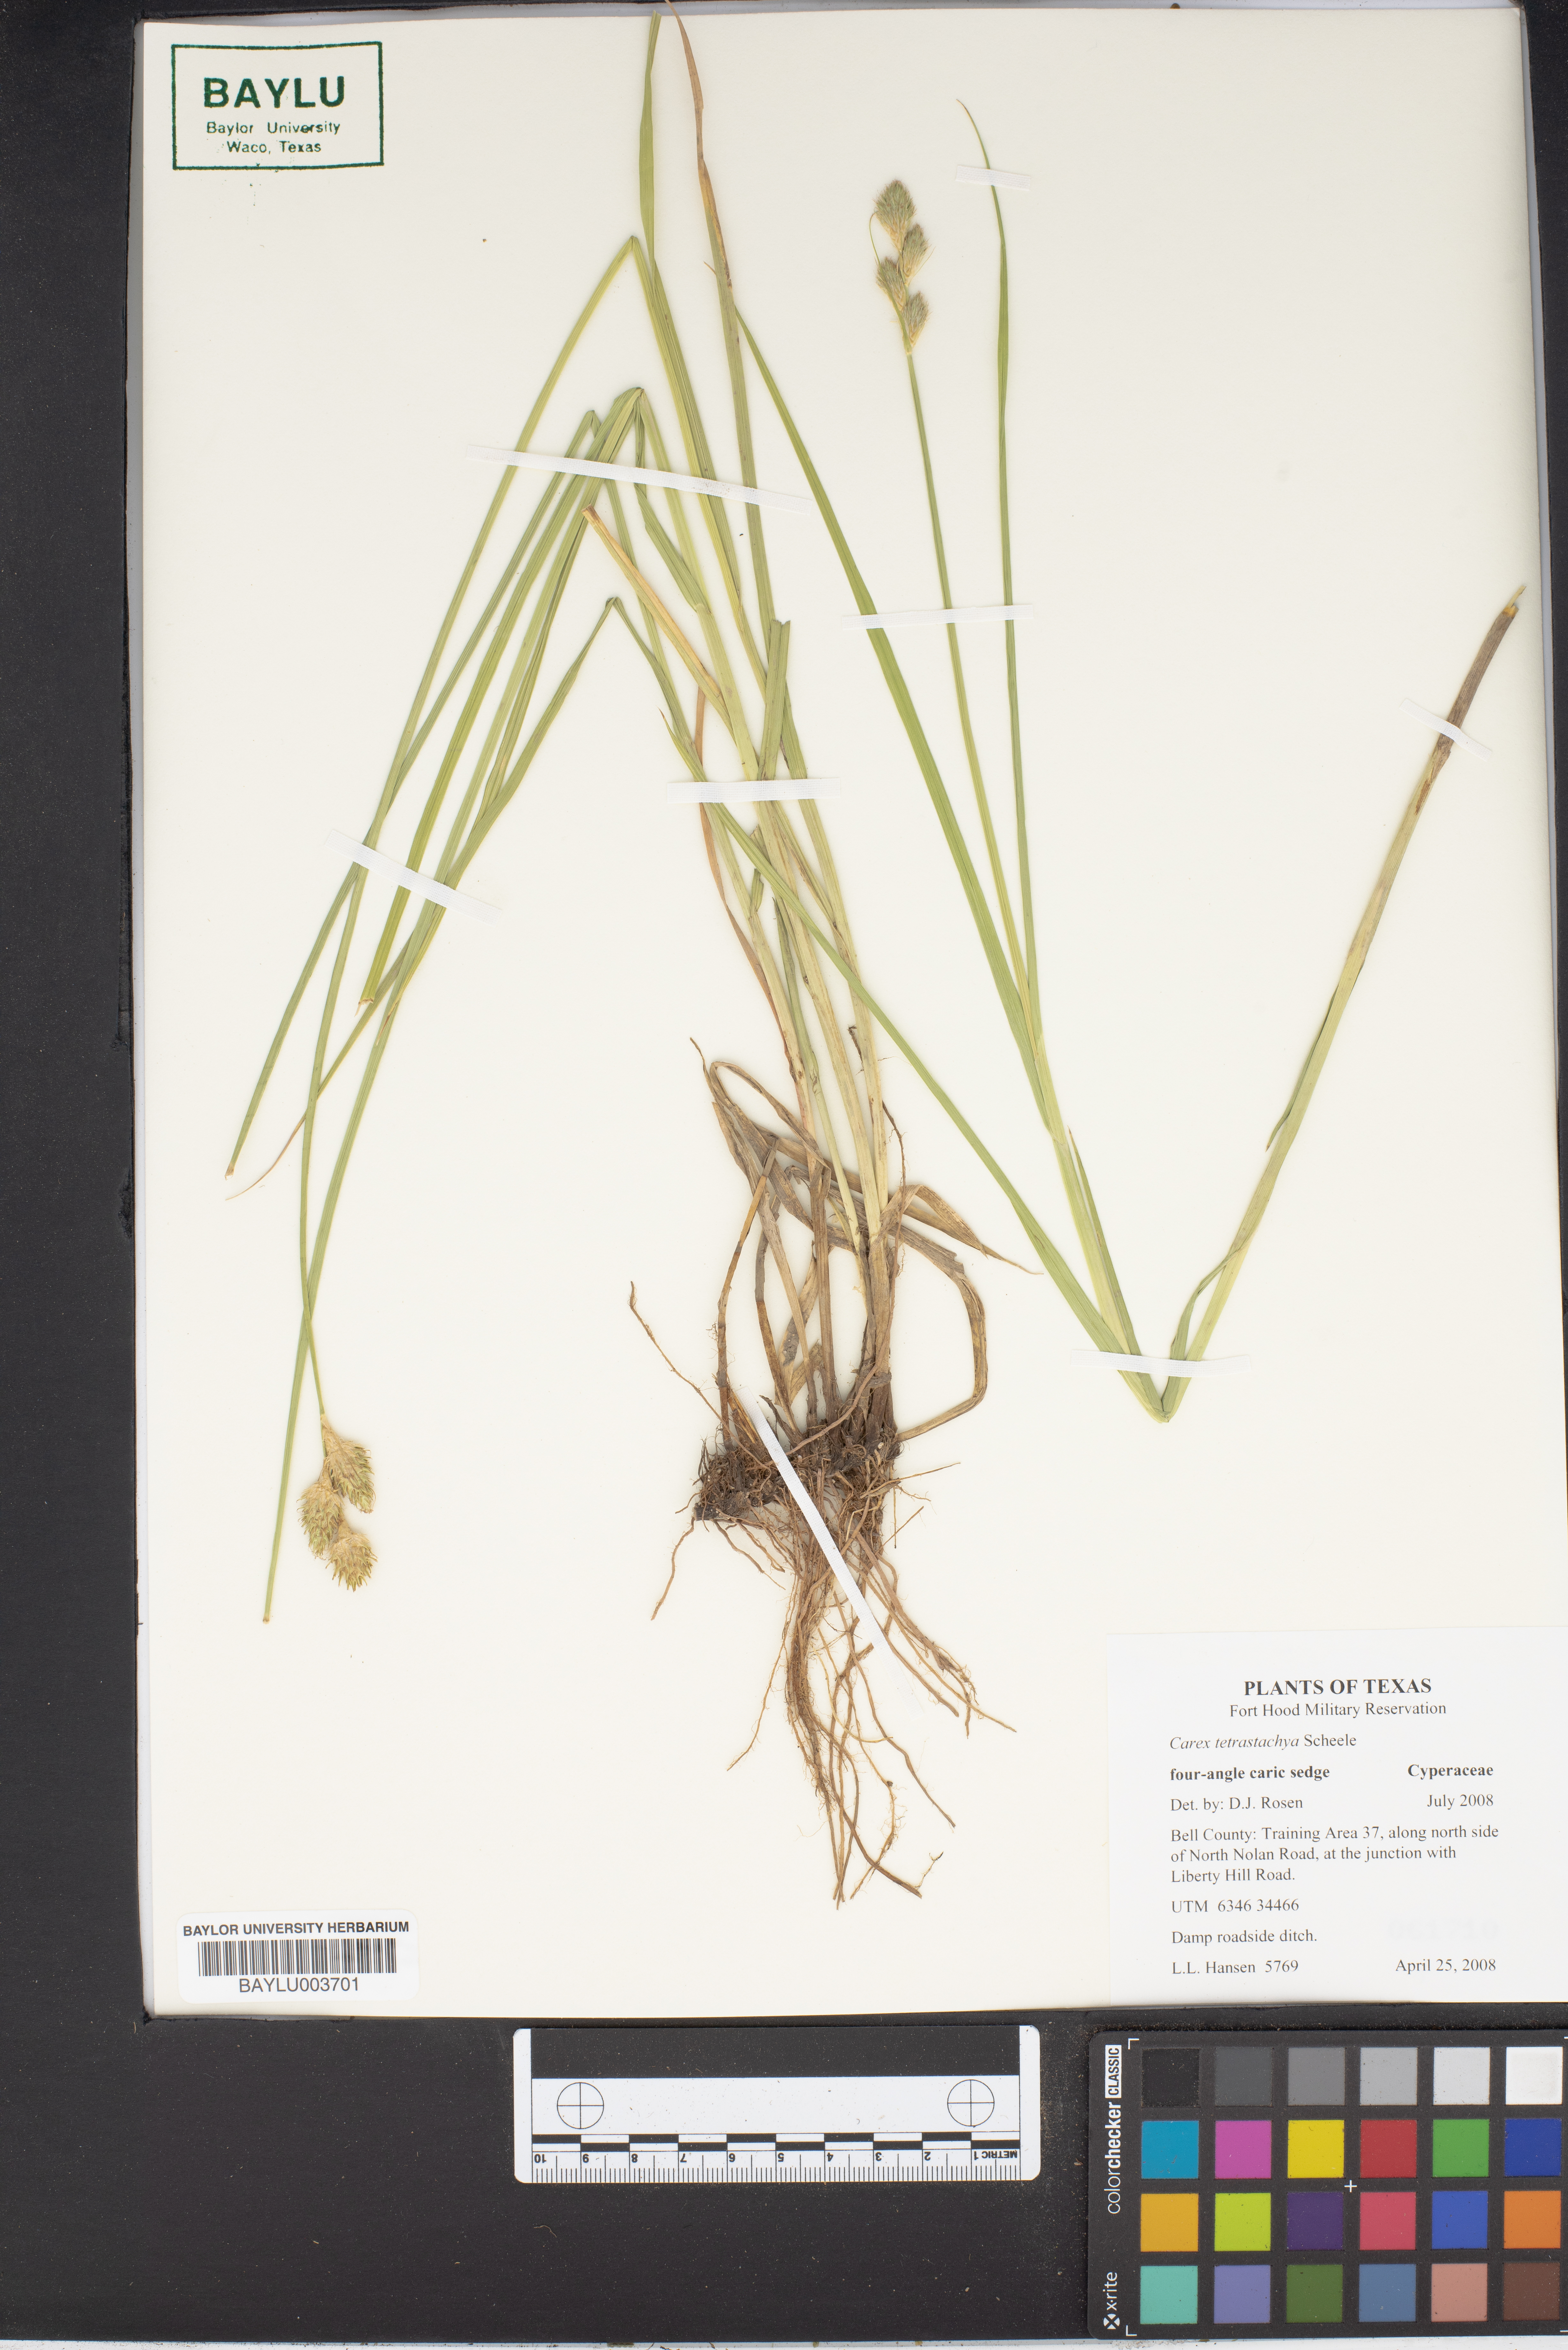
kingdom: Plantae
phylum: Tracheophyta
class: Liliopsida
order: Poales
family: Cyperaceae
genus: Carex
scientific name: Carex tetrastachya
